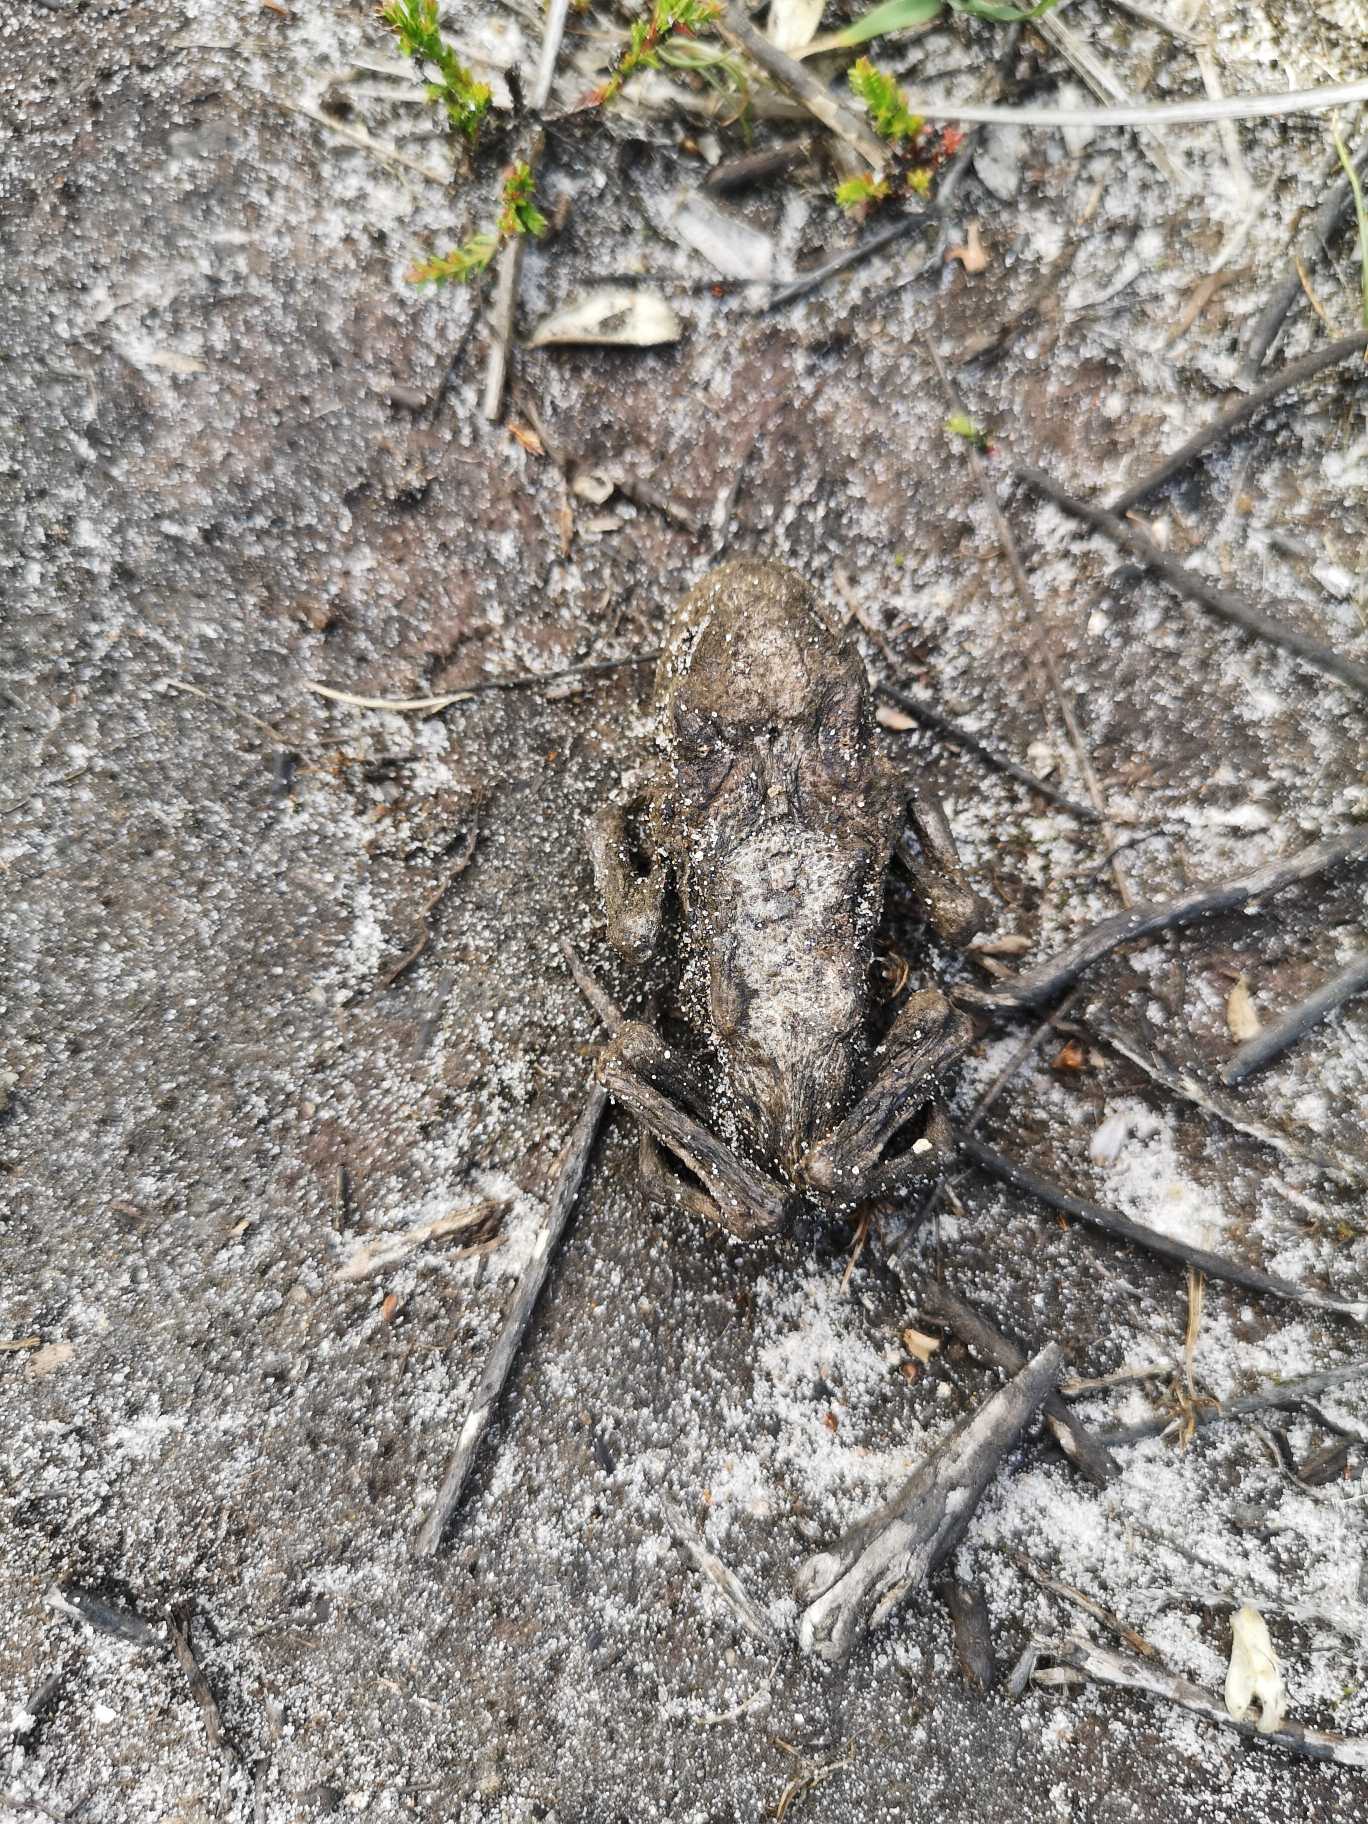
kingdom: Animalia
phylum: Chordata
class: Amphibia
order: Anura
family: Bufonidae
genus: Bufo
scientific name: Bufo bufo
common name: Skrubtudse
